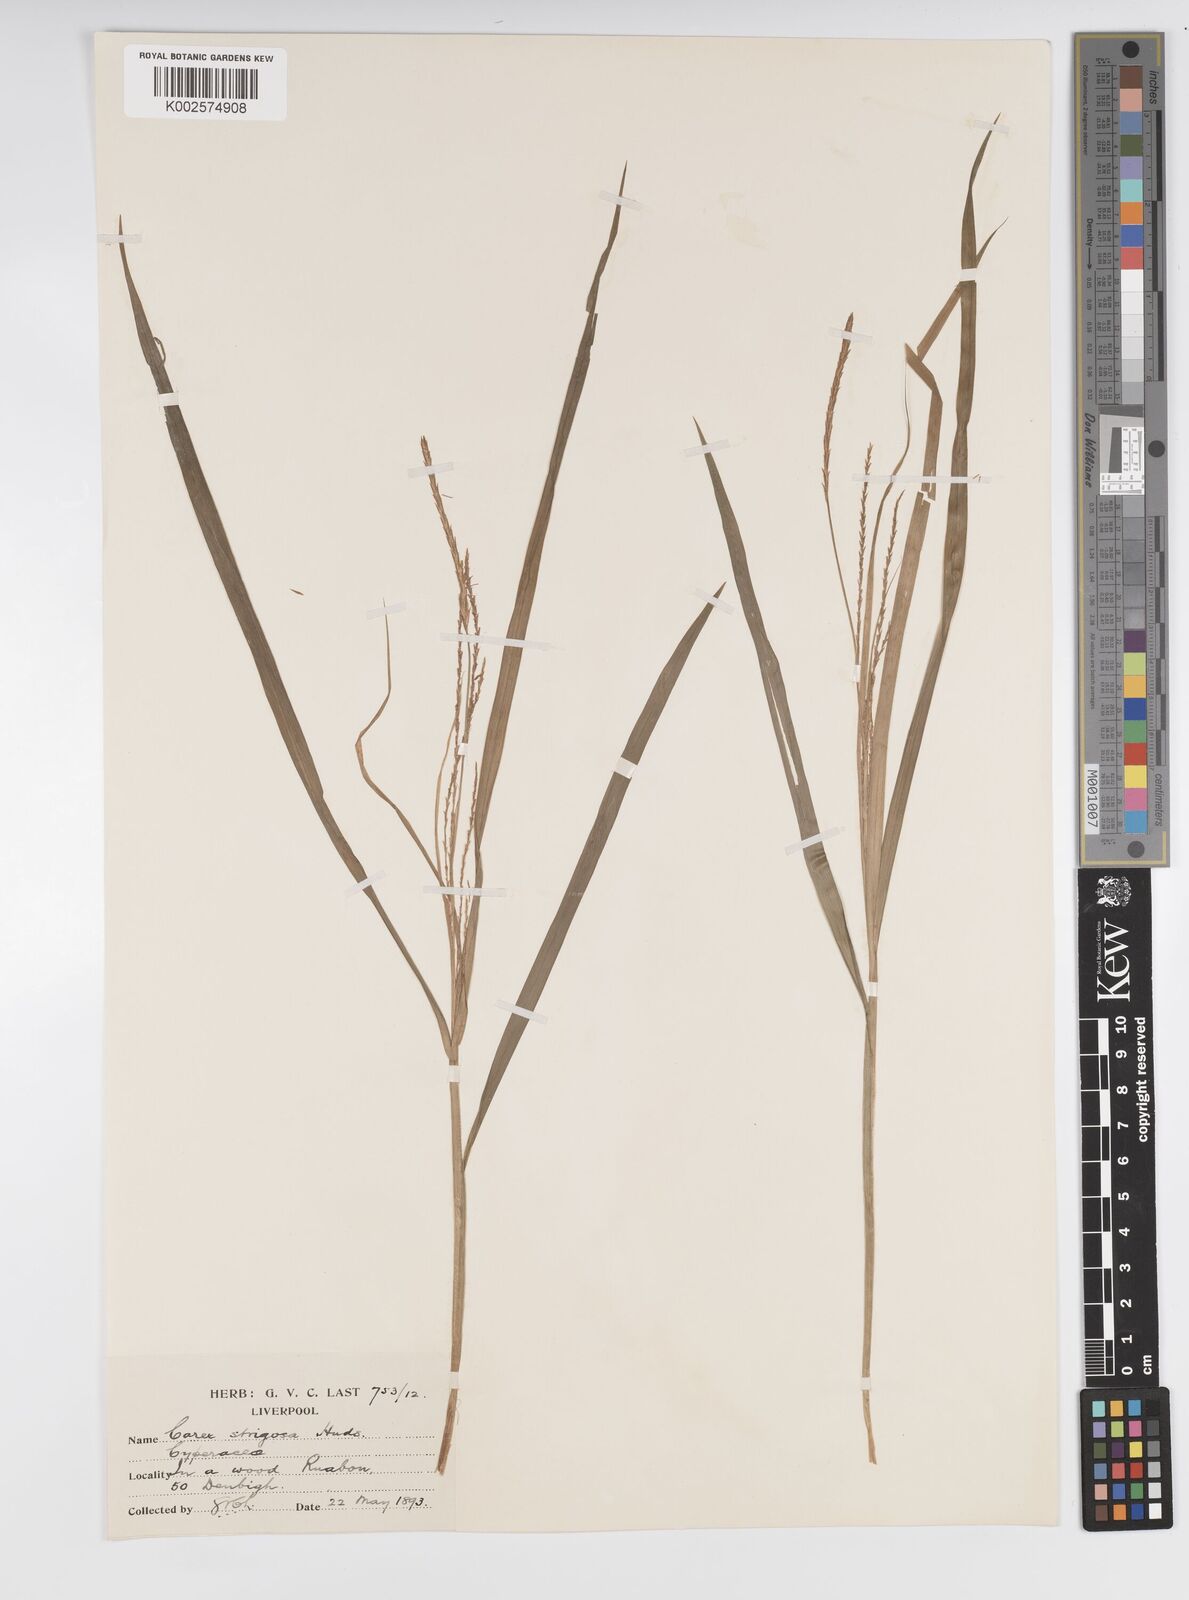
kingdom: Plantae
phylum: Tracheophyta
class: Liliopsida
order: Poales
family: Cyperaceae
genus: Carex
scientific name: Carex strigosa
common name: Thin-spiked wood-sedge
